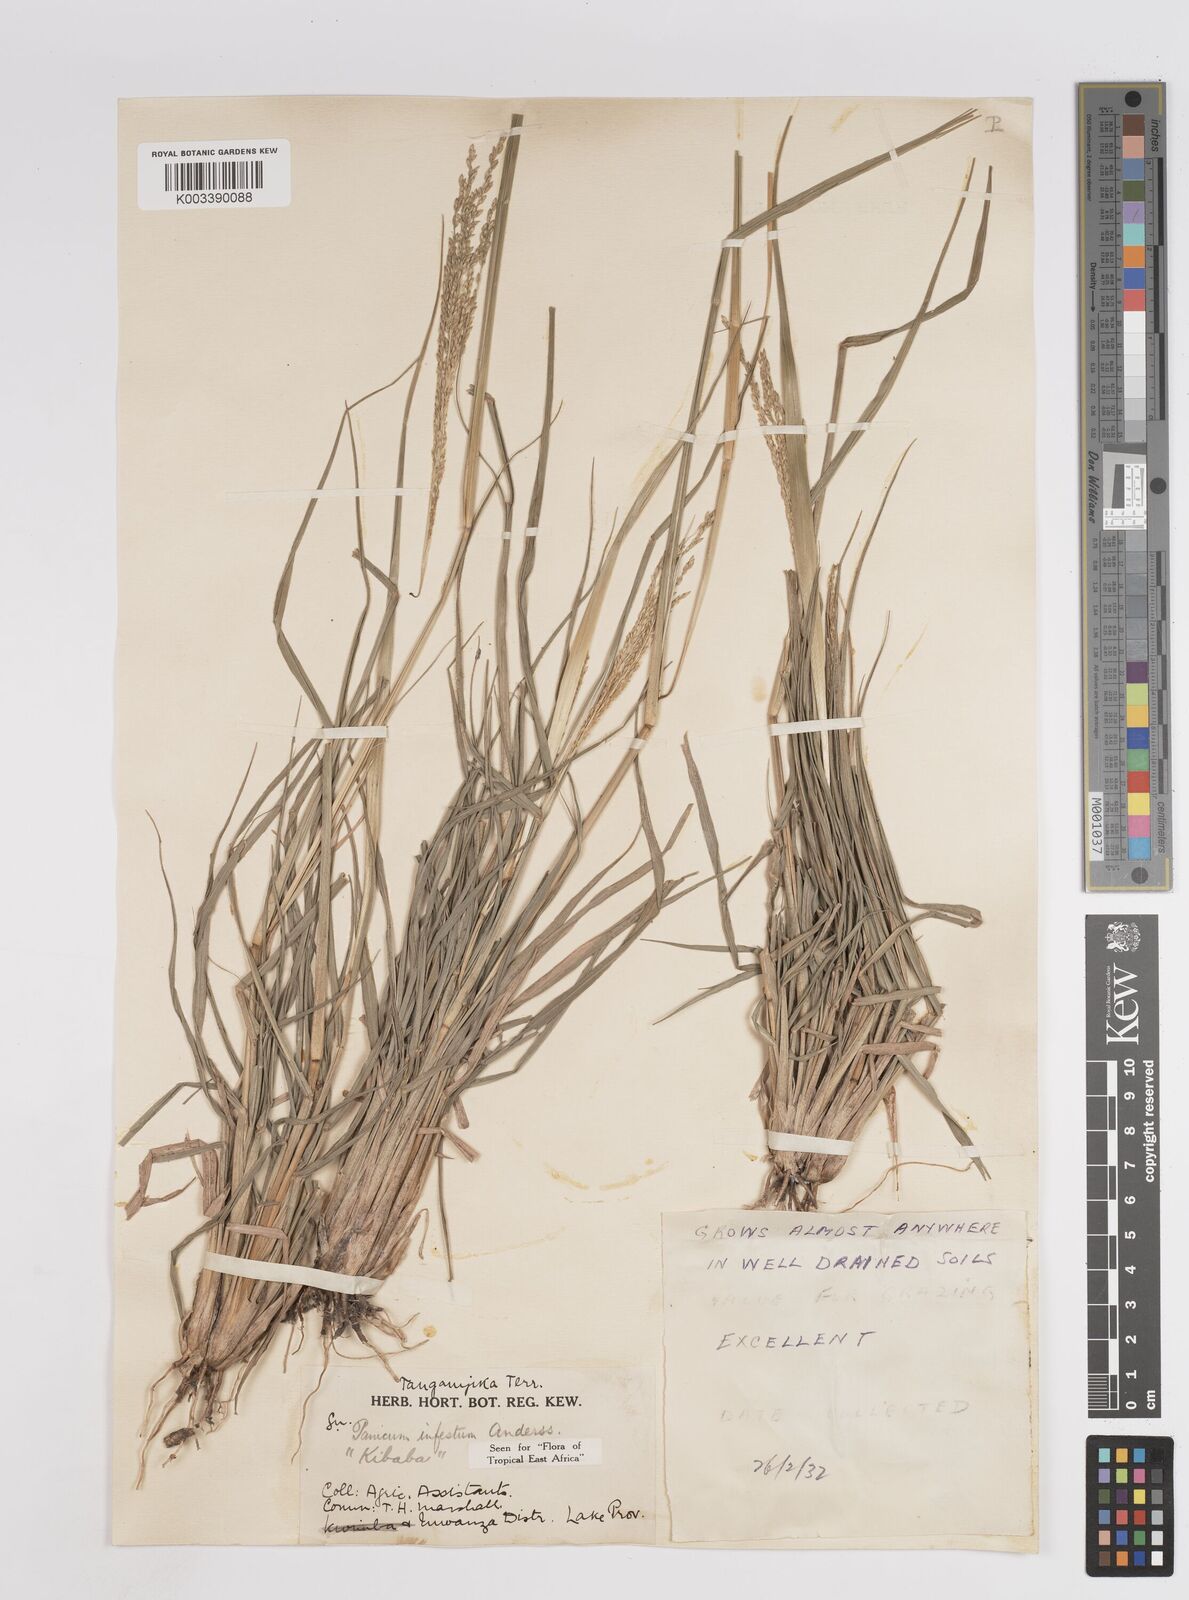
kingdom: Plantae
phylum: Tracheophyta
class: Liliopsida
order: Poales
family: Poaceae
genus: Megathyrsus
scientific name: Megathyrsus infestus
